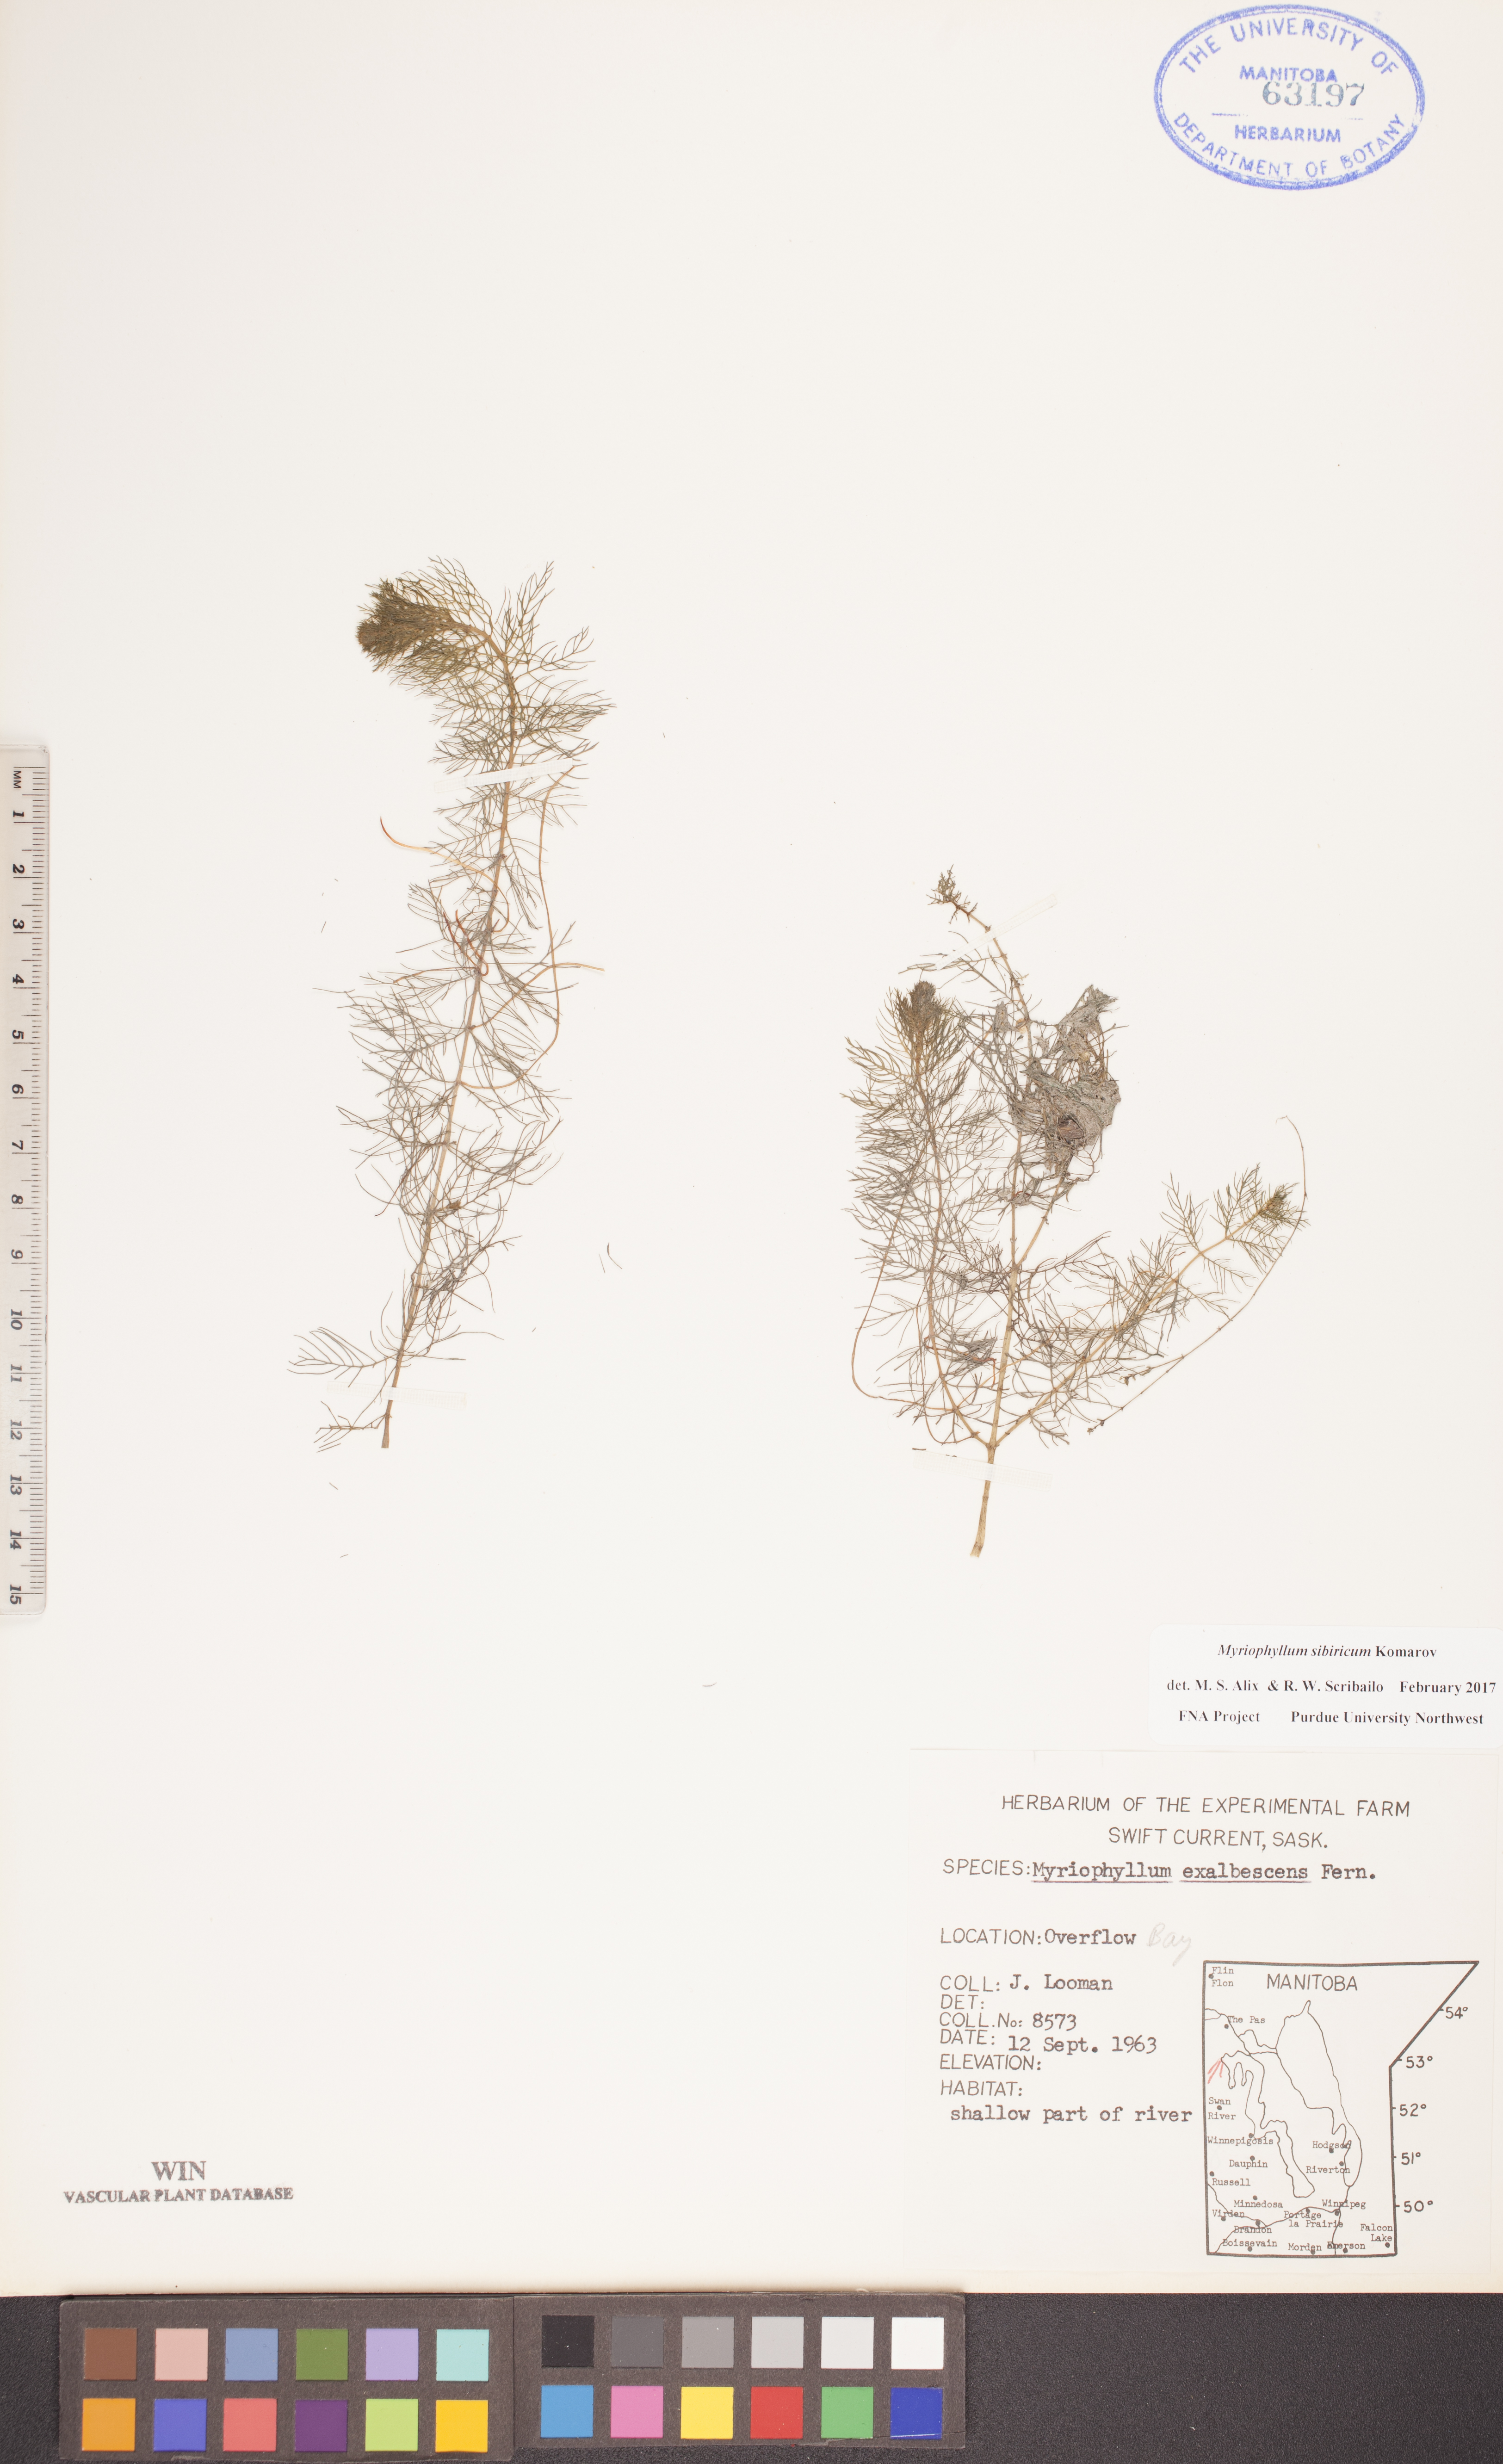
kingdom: Plantae
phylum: Tracheophyta
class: Magnoliopsida
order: Saxifragales
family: Haloragaceae
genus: Myriophyllum
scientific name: Myriophyllum sibiricum
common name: Siberian water-milfoil
